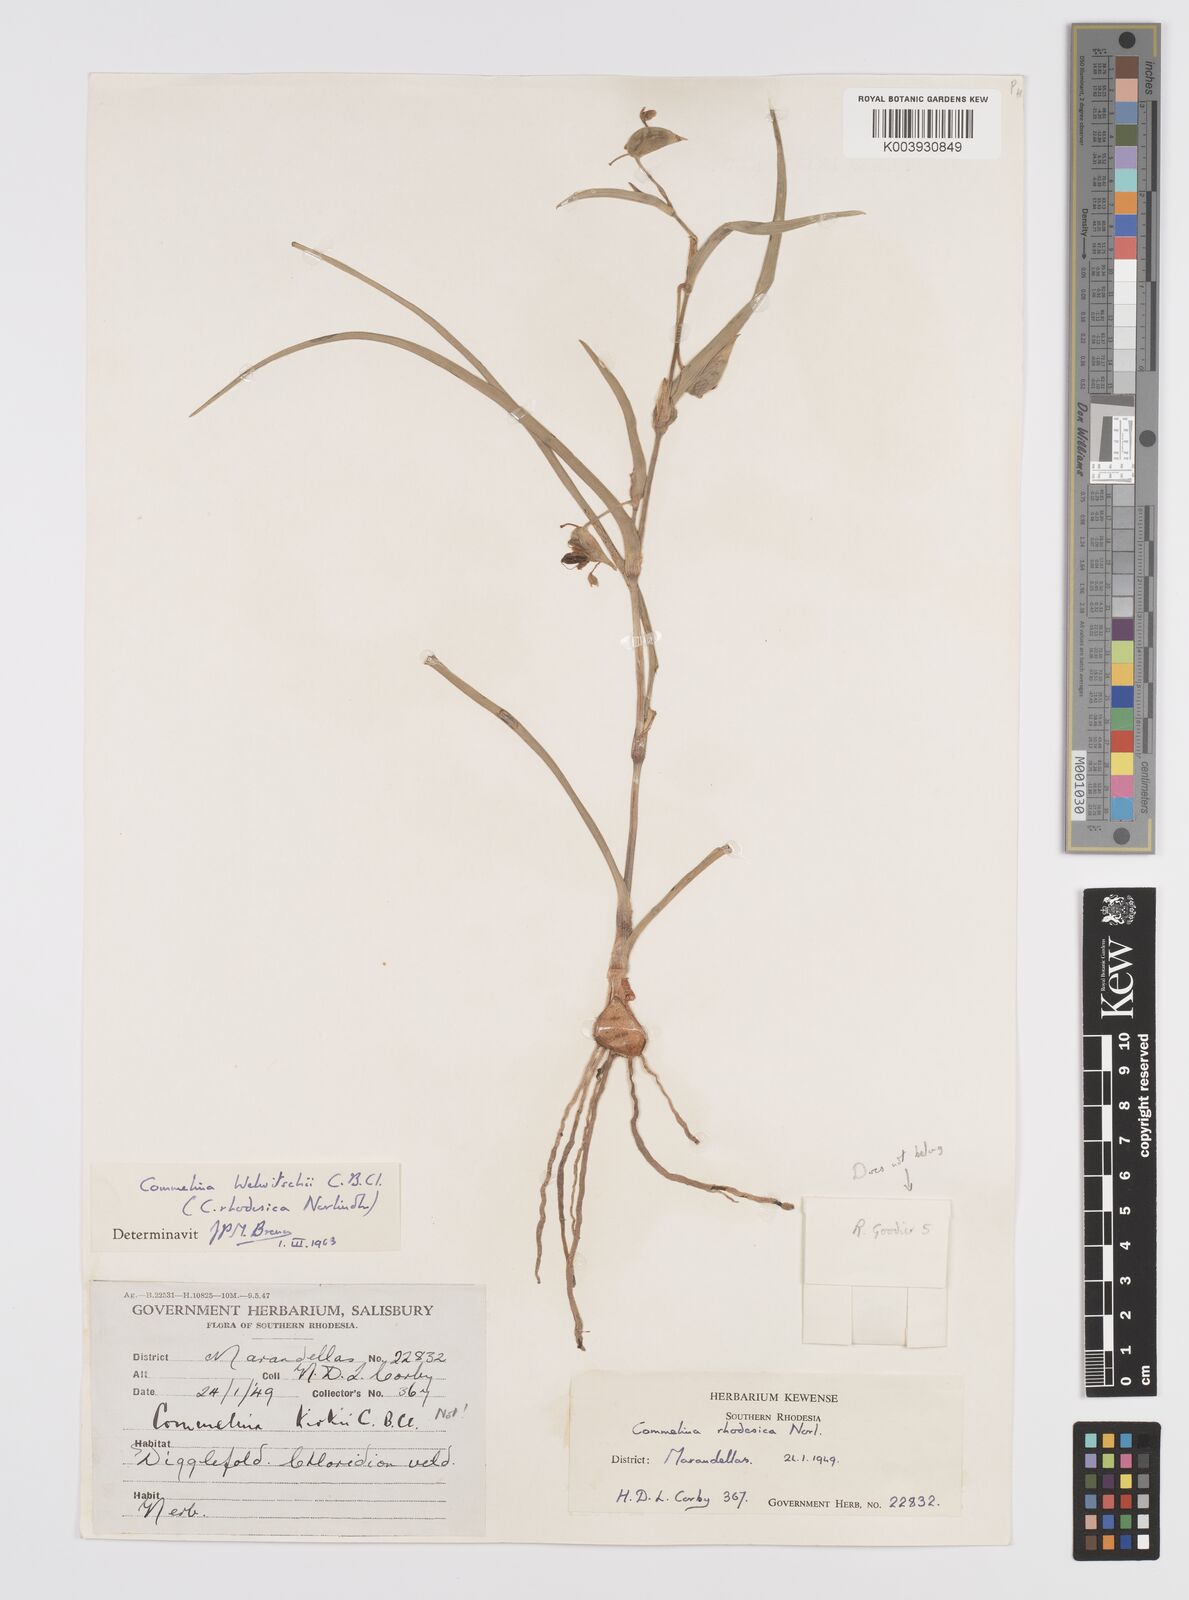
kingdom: Plantae
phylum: Tracheophyta
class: Liliopsida
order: Commelinales
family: Commelinaceae
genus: Commelina
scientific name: Commelina welwitschii
